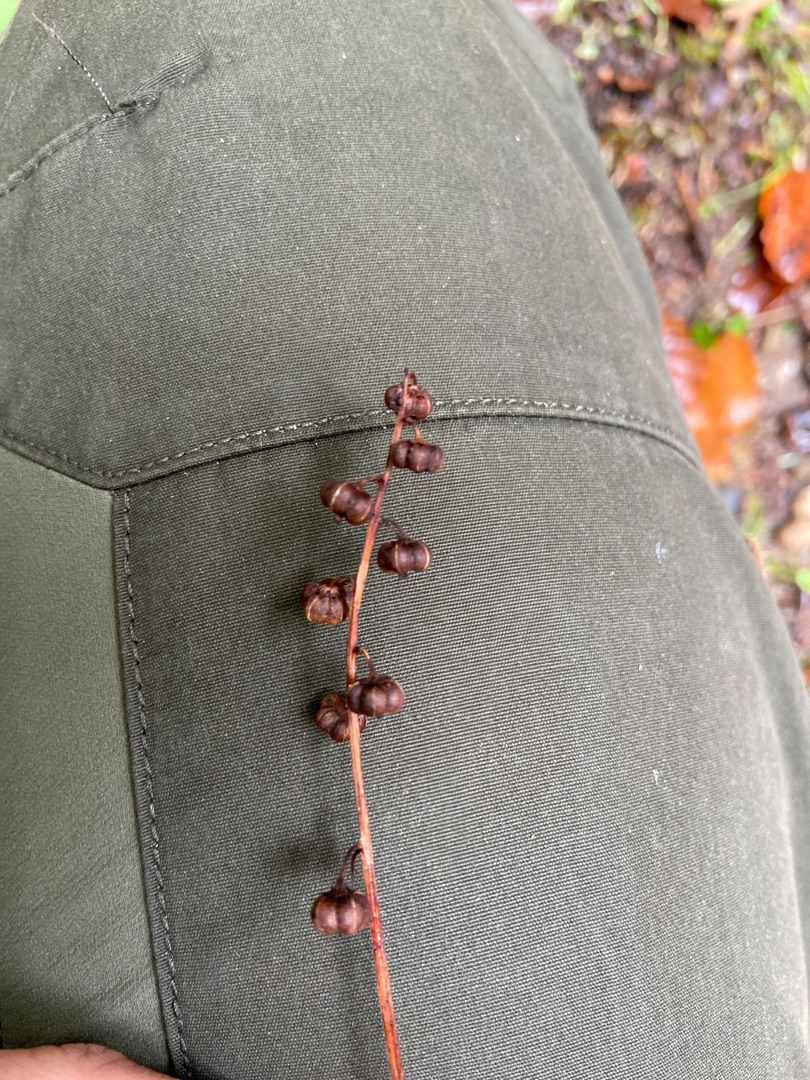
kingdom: Plantae
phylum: Tracheophyta
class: Magnoliopsida
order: Ericales
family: Ericaceae
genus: Pyrola
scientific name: Pyrola minor
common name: Liden vintergrøn
